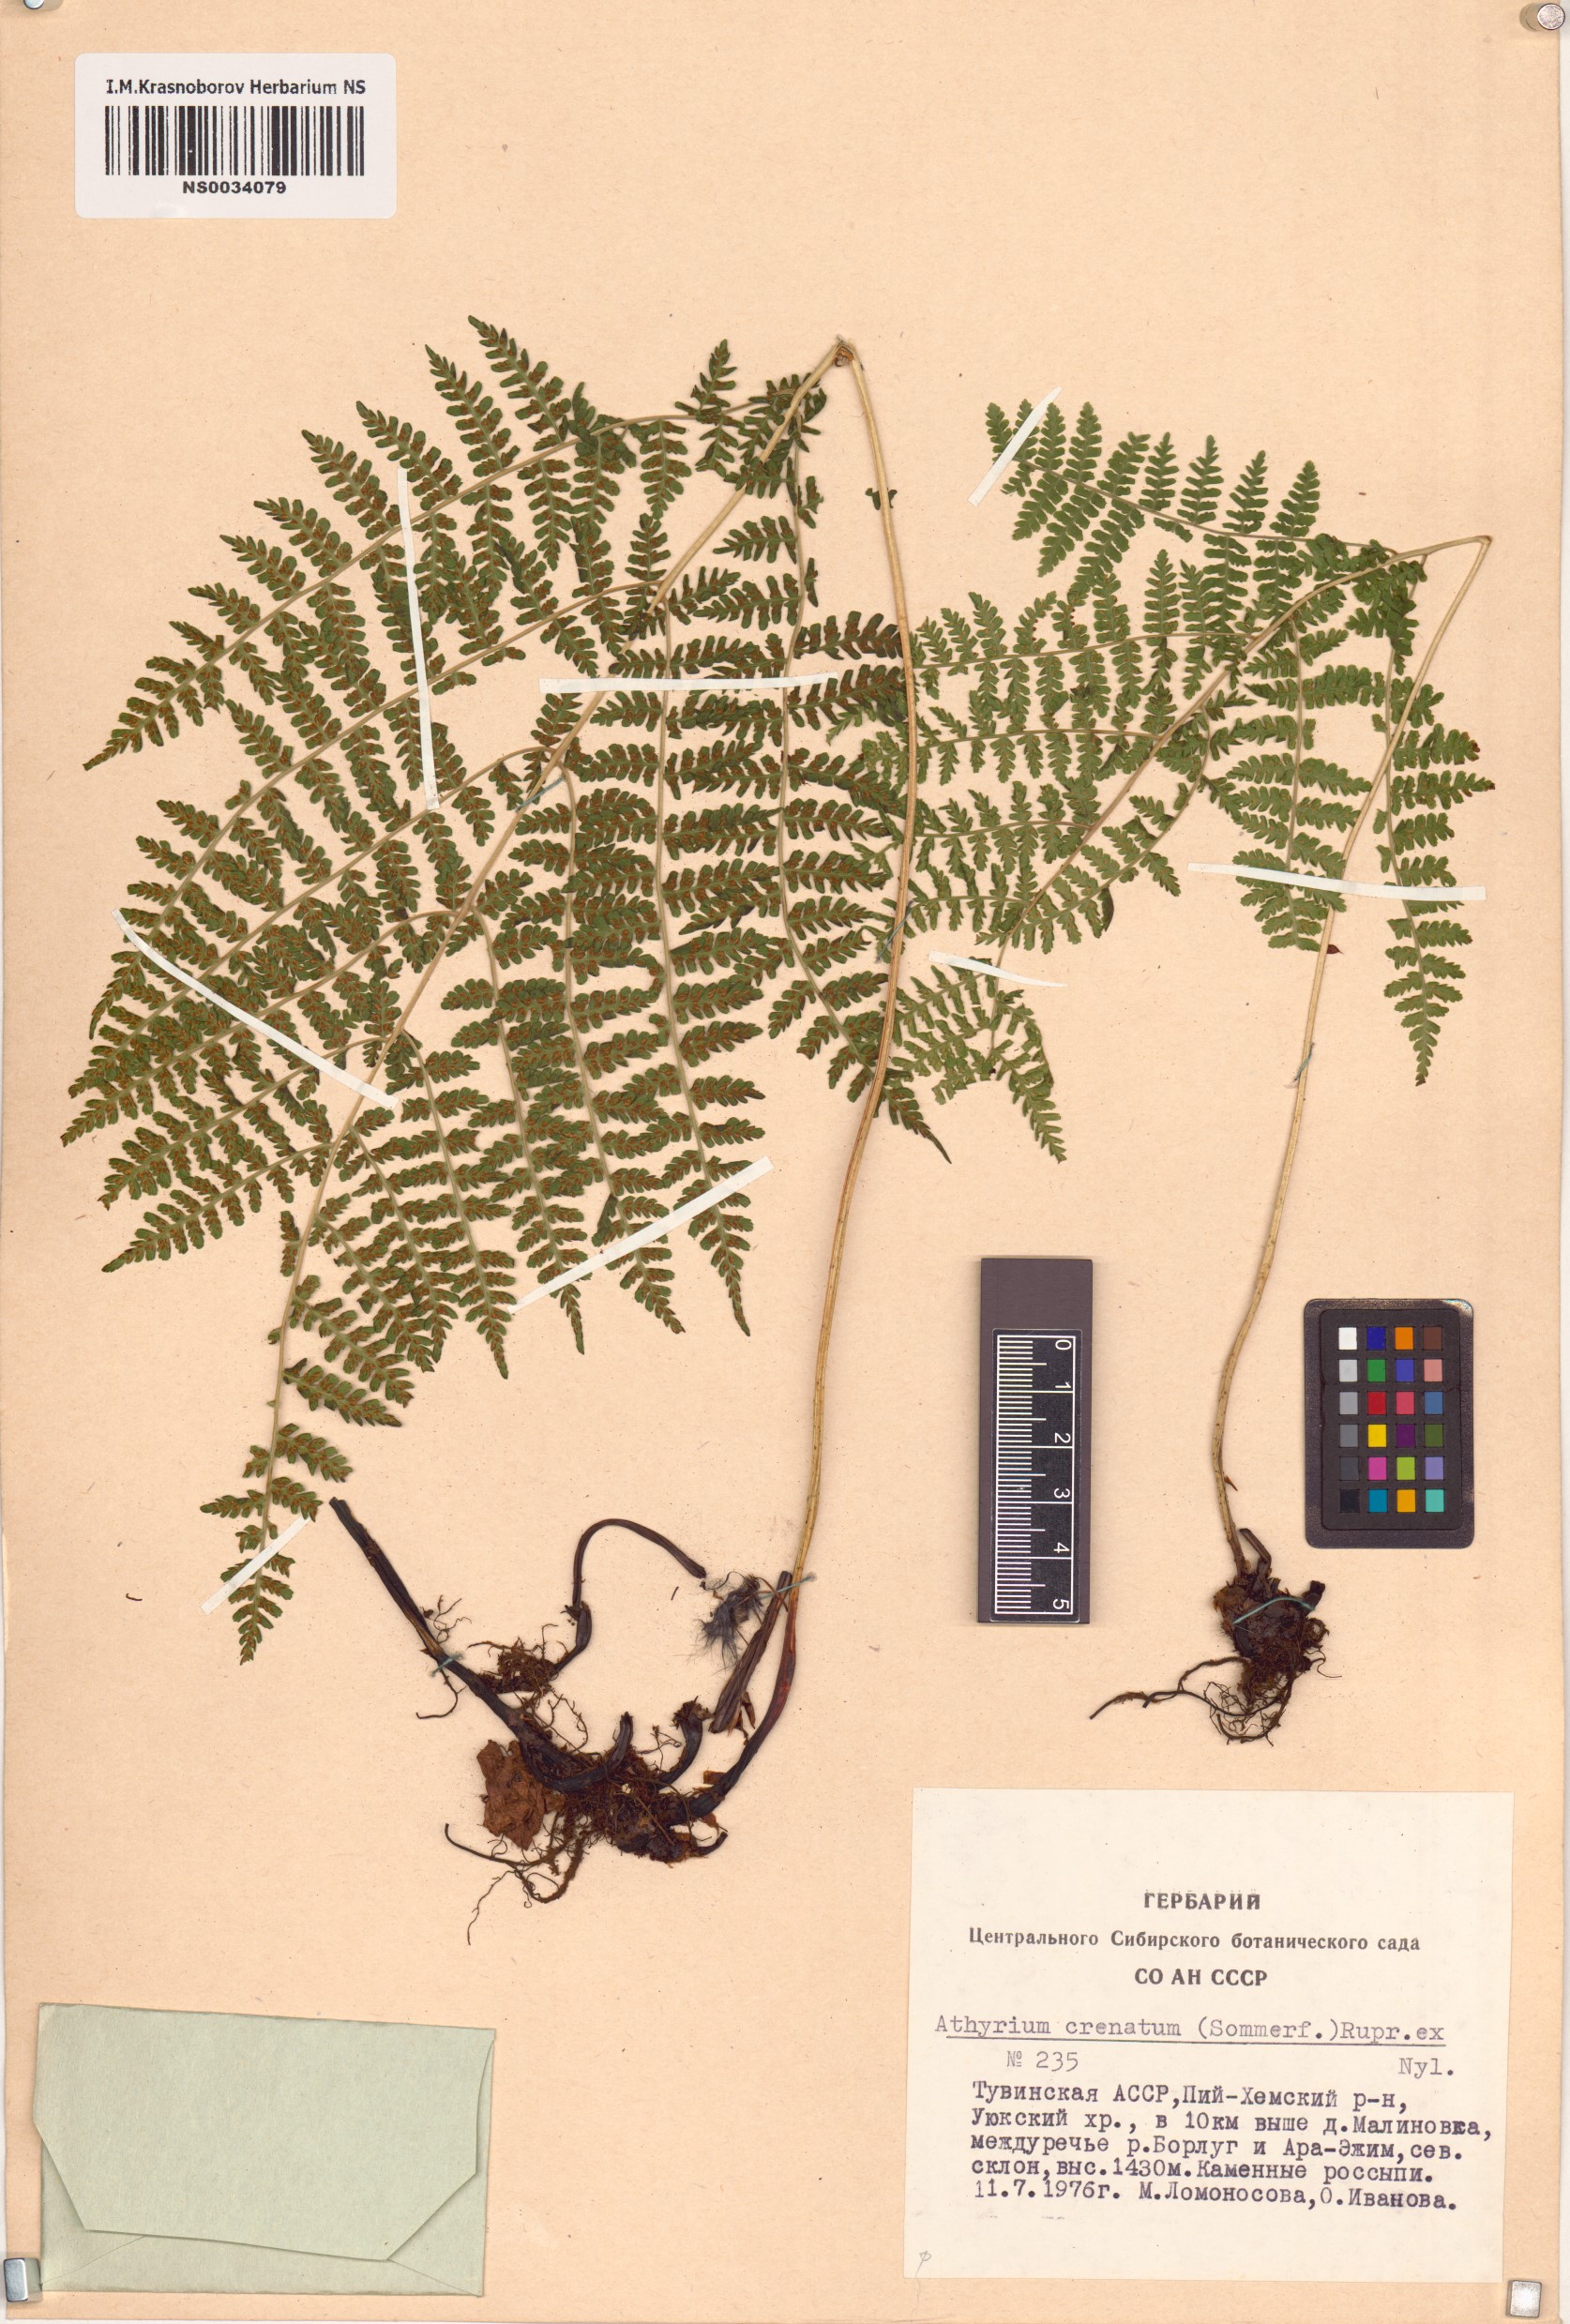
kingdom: Plantae
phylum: Tracheophyta
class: Polypodiopsida
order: Polypodiales
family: Athyriaceae
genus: Diplazium
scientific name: Diplazium sibiricum
